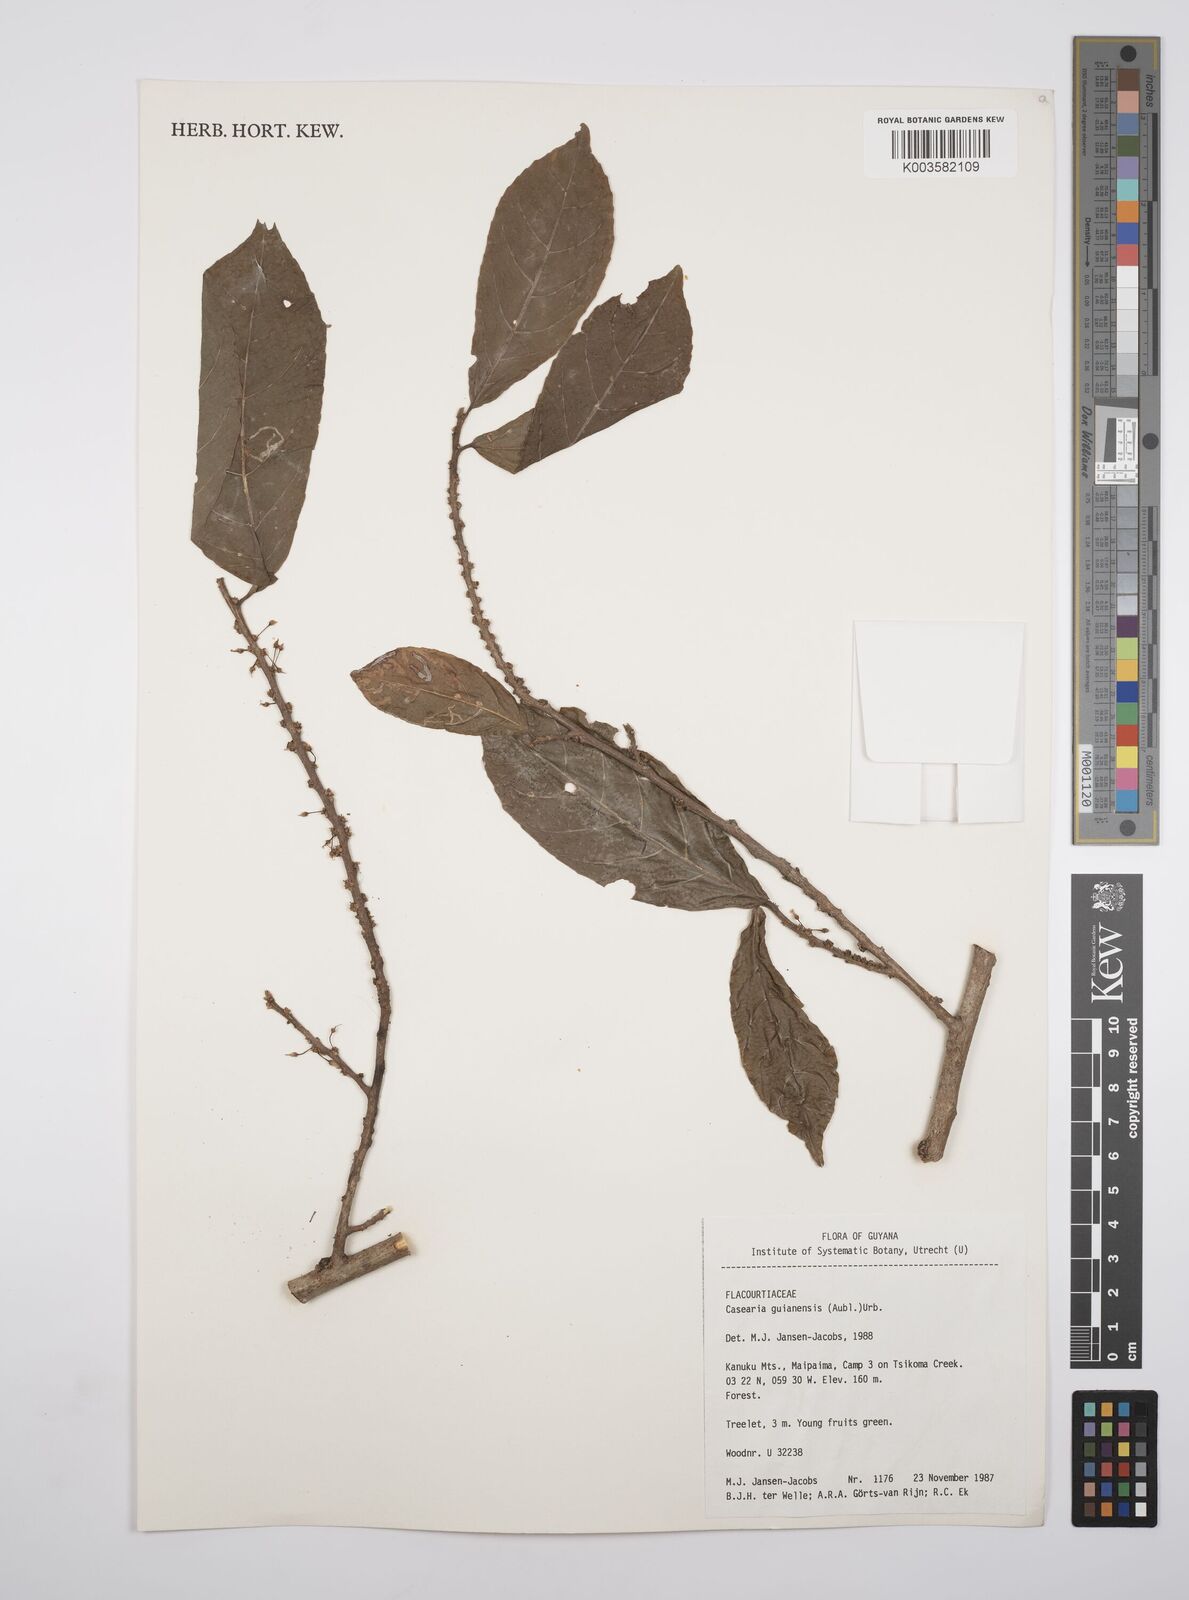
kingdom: Plantae
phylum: Tracheophyta
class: Magnoliopsida
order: Malpighiales
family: Salicaceae
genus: Casearia
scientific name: Casearia guianensis
